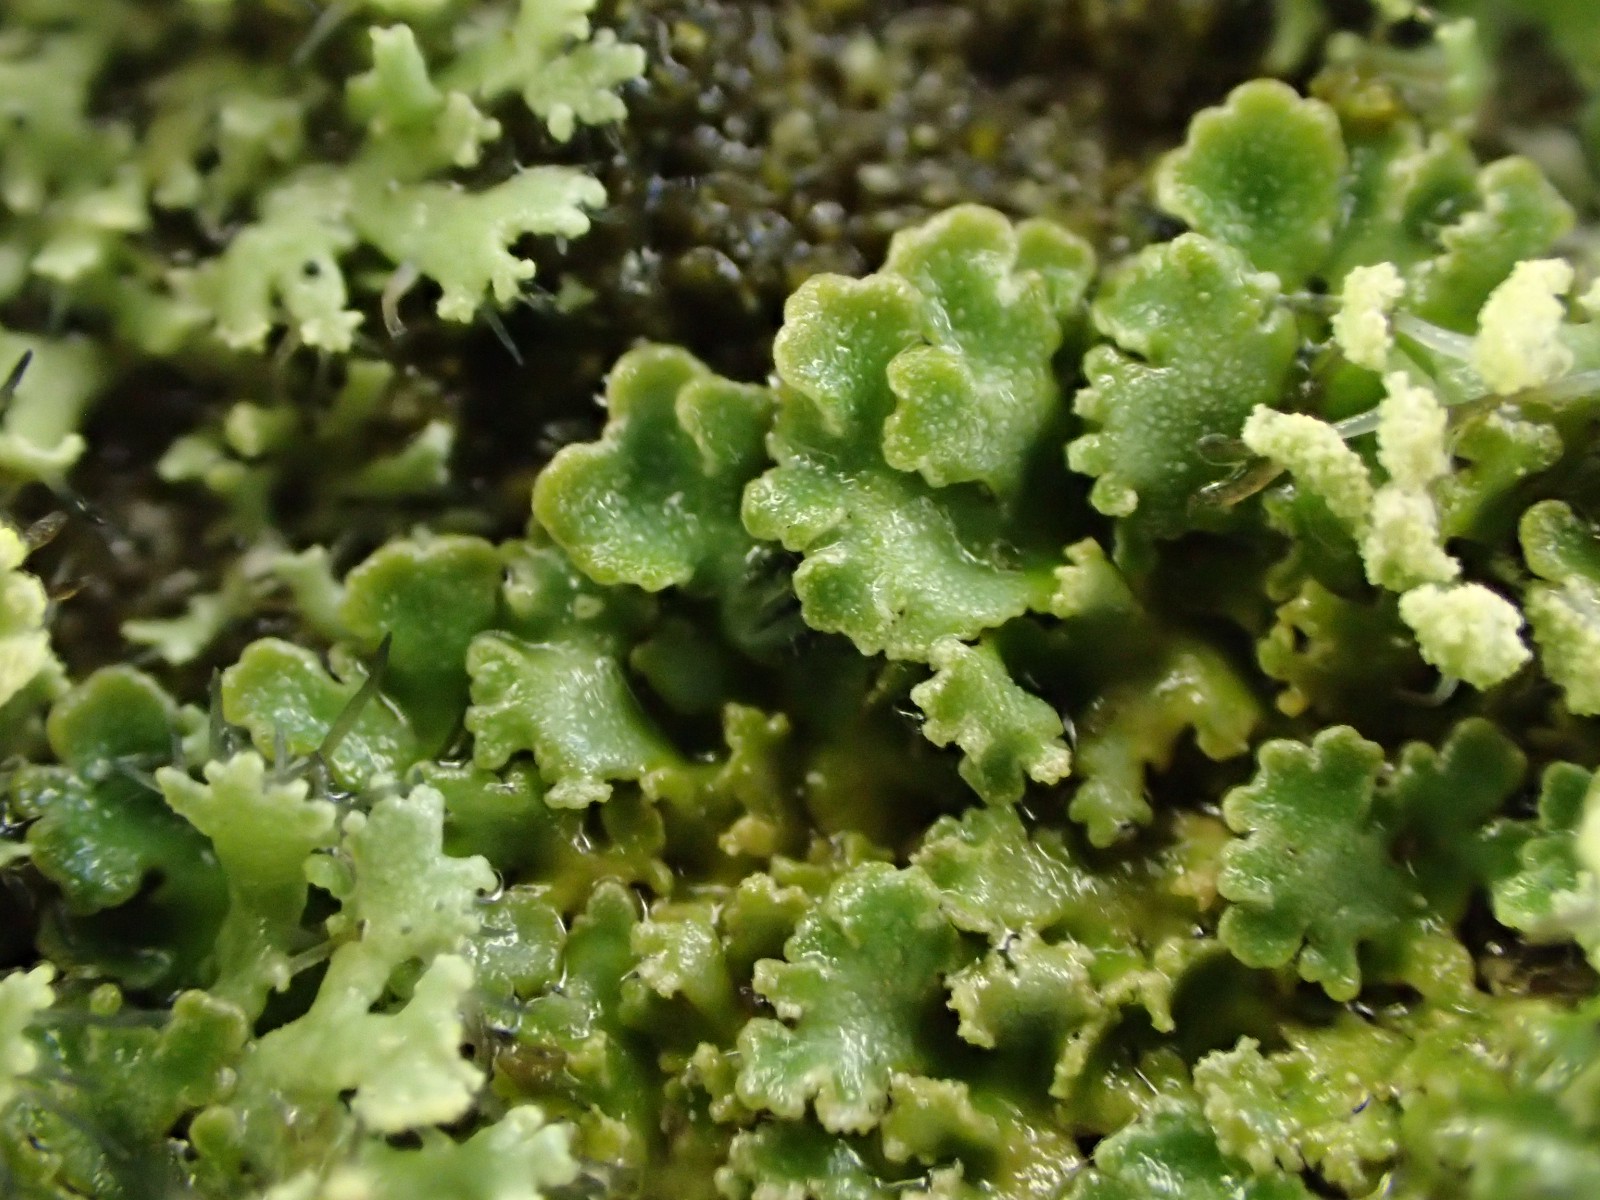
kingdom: Fungi
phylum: Ascomycota
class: Lecanoromycetes
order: Caliciales
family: Physciaceae
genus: Physconia
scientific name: Physconia perisidiosa
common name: liden dugrosetlav
